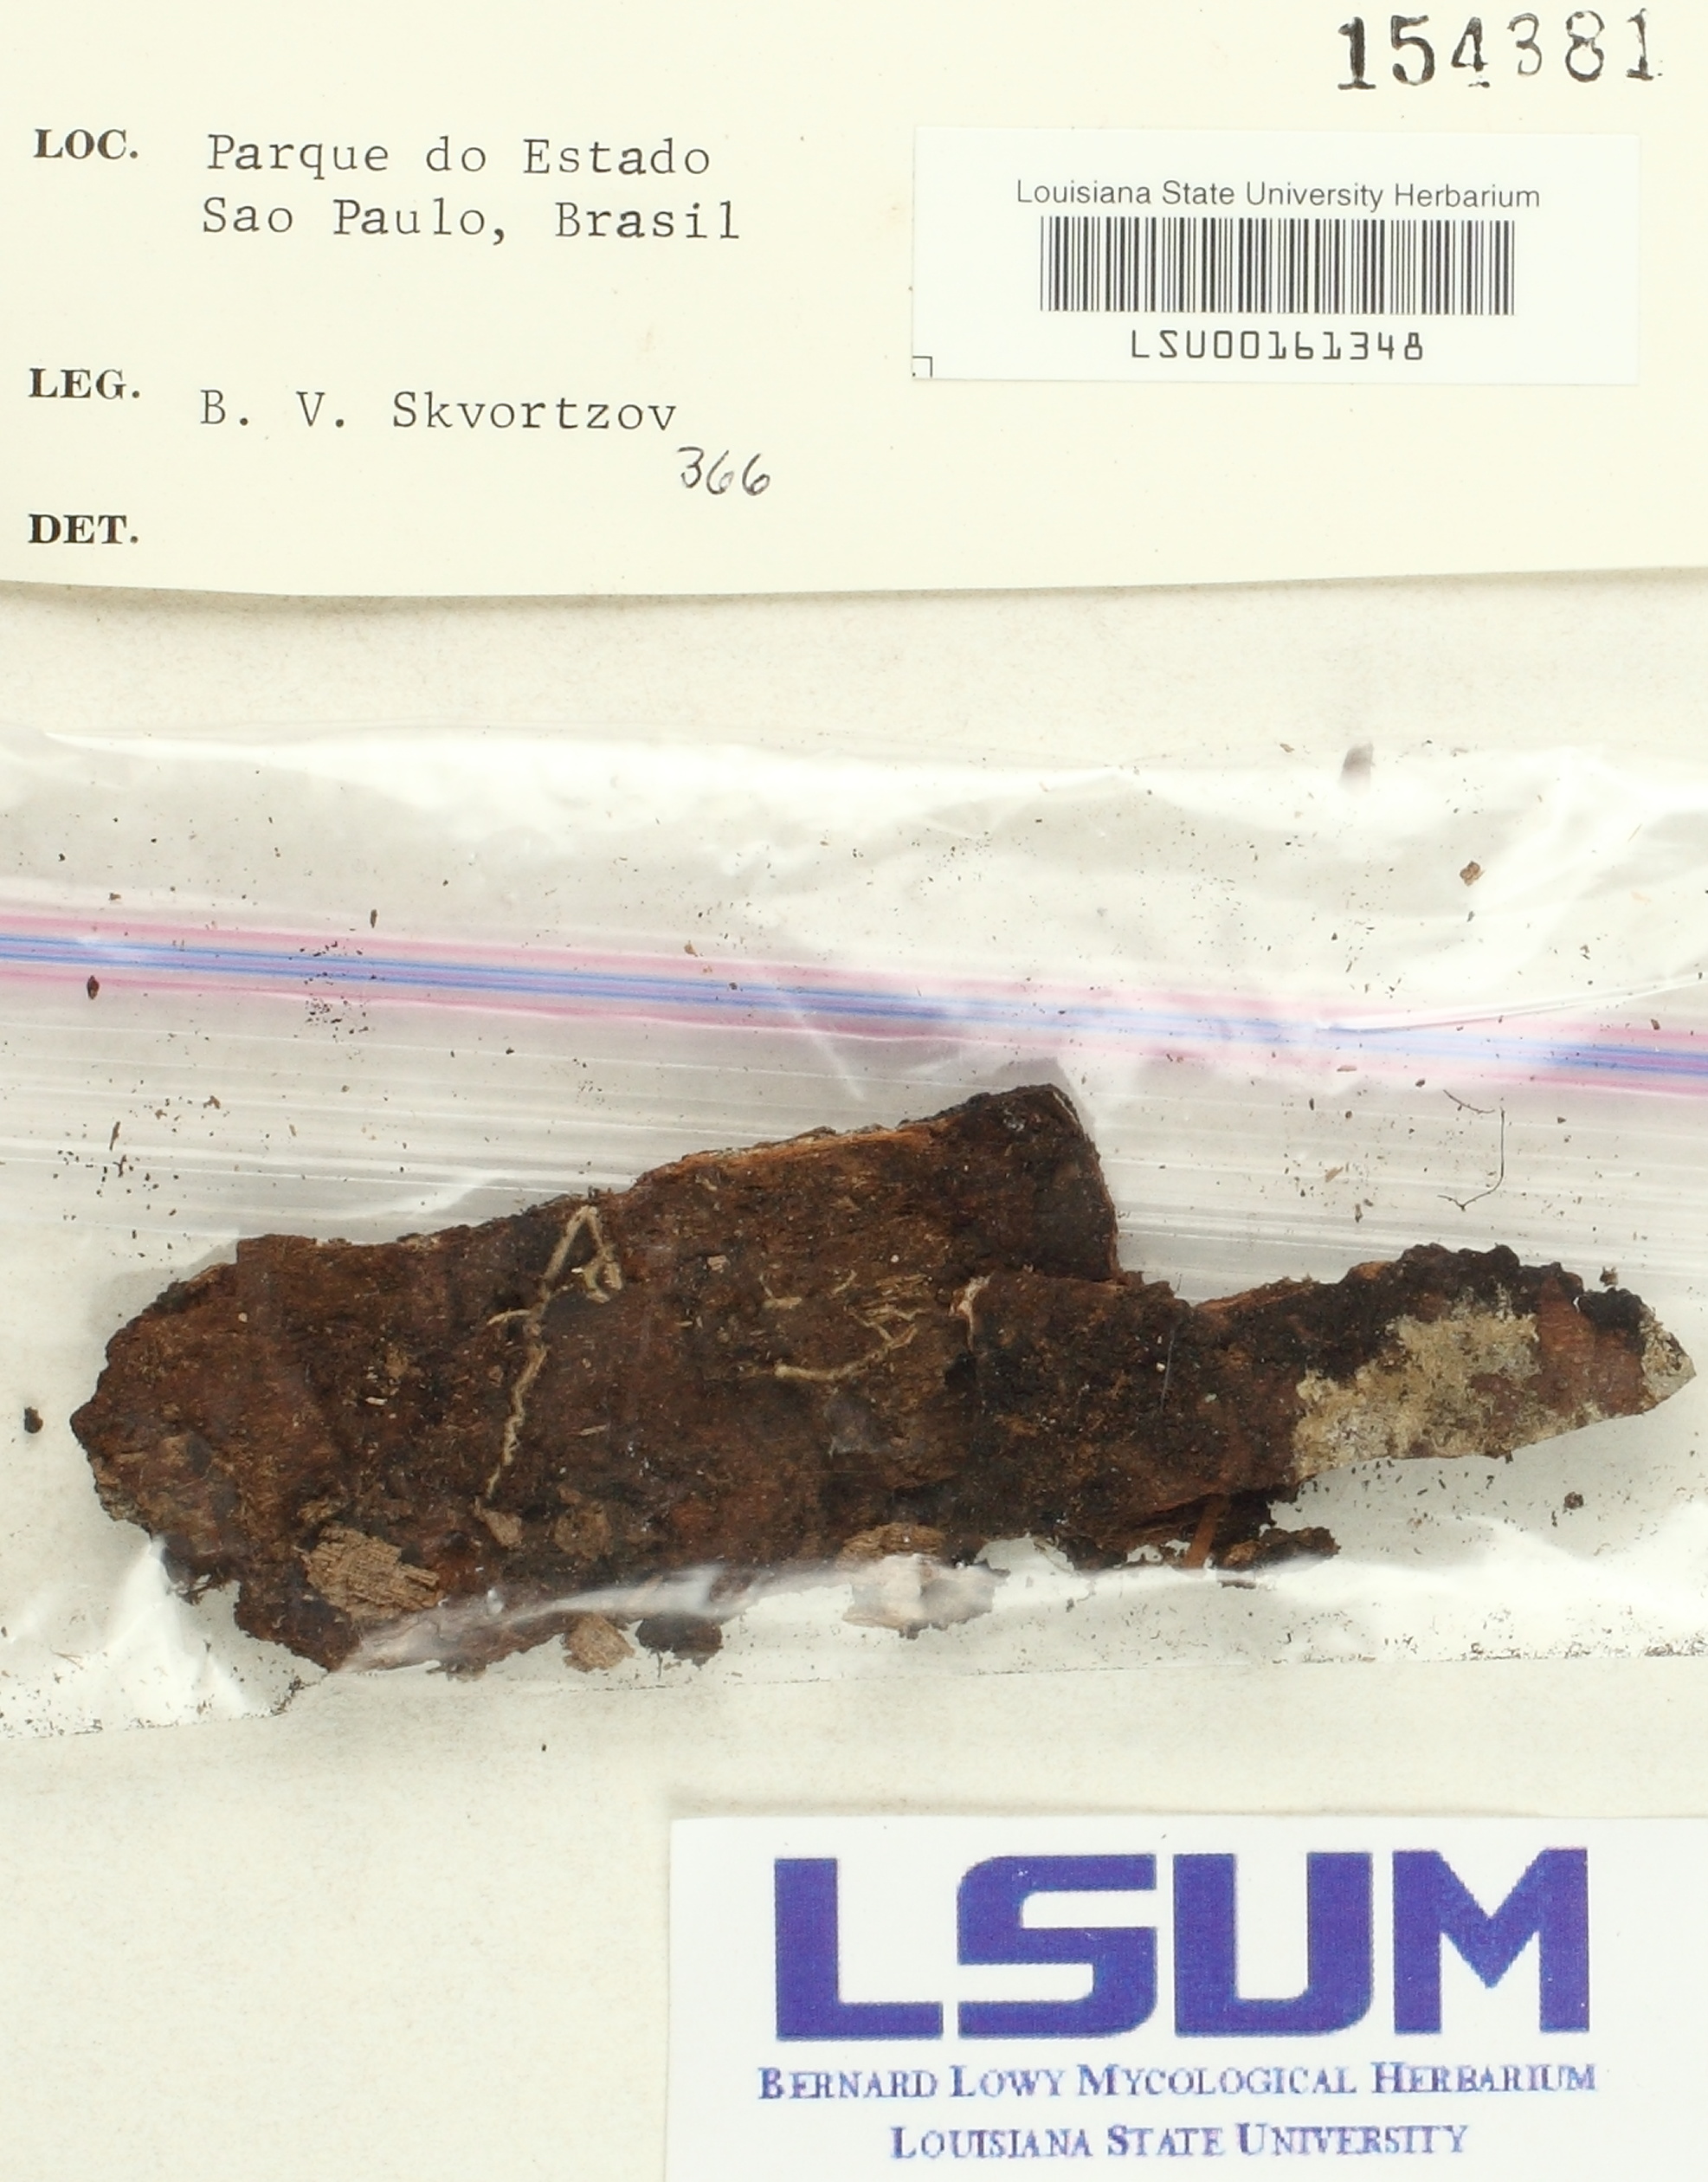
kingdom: Fungi
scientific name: Fungi
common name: Fungi
